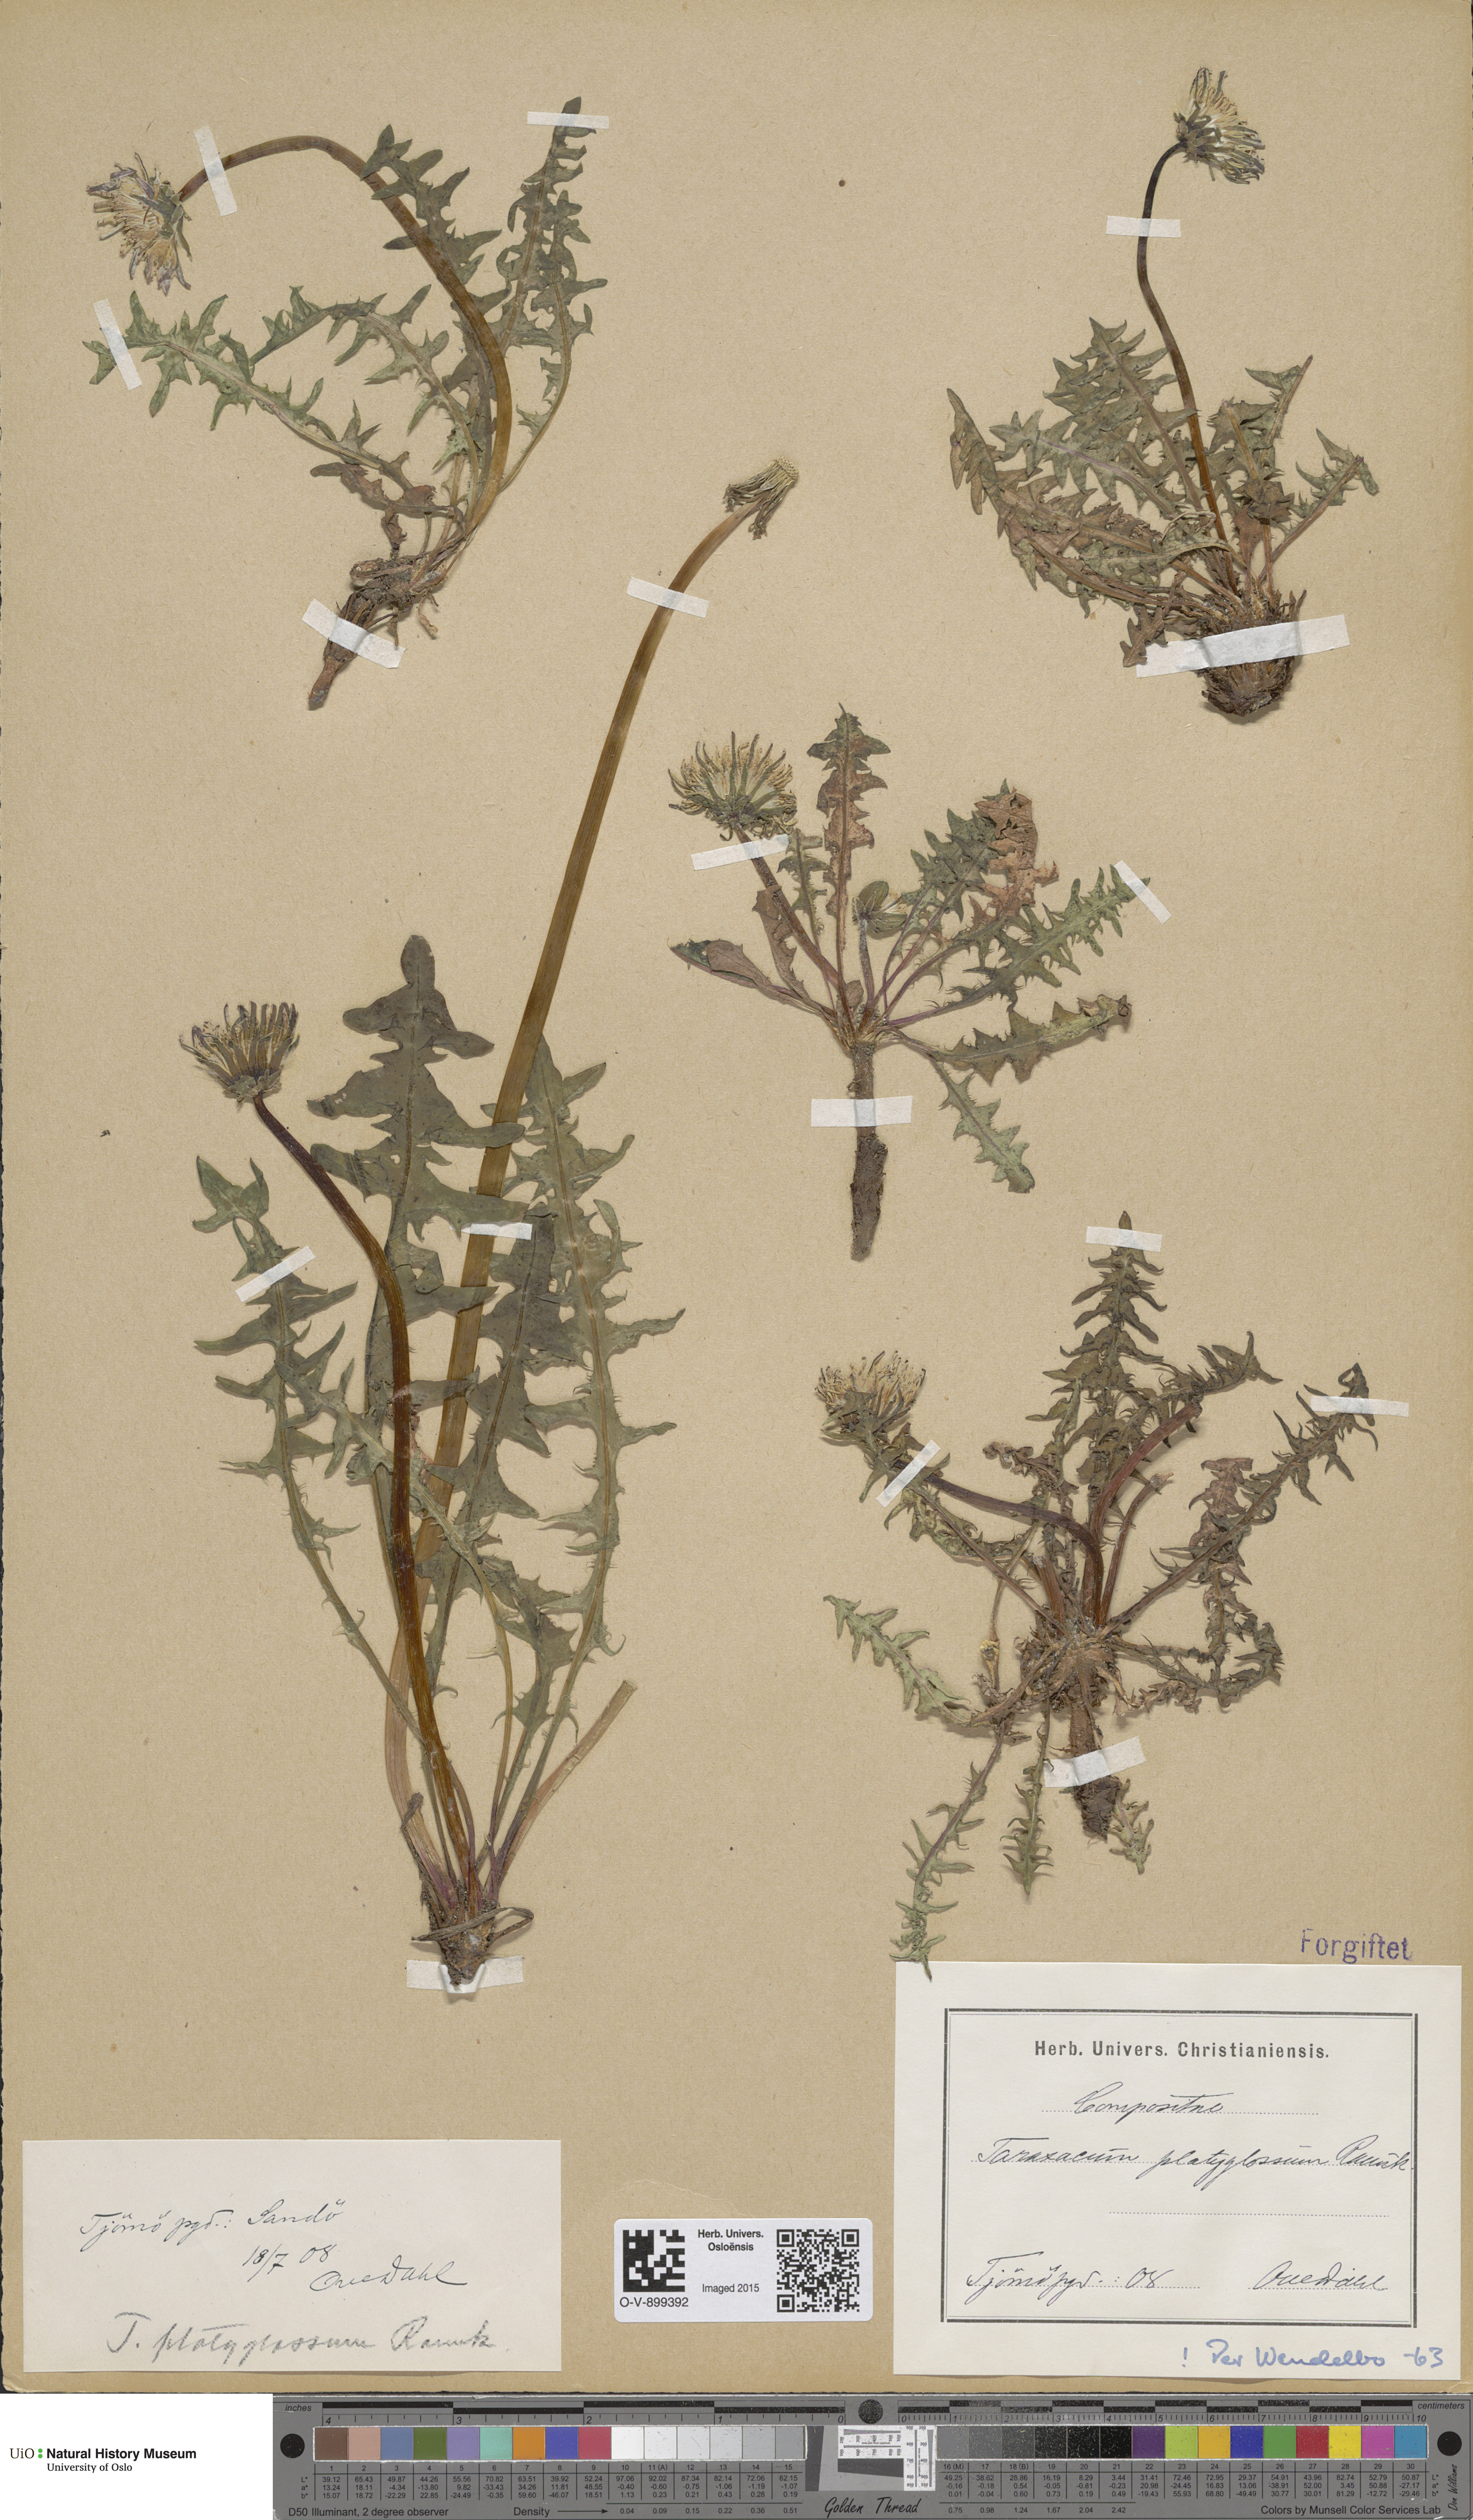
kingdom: Plantae
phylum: Tracheophyta
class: Magnoliopsida
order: Asterales
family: Asteraceae
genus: Taraxacum
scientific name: Taraxacum platyglossum
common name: Tongue-leaved dandelion
